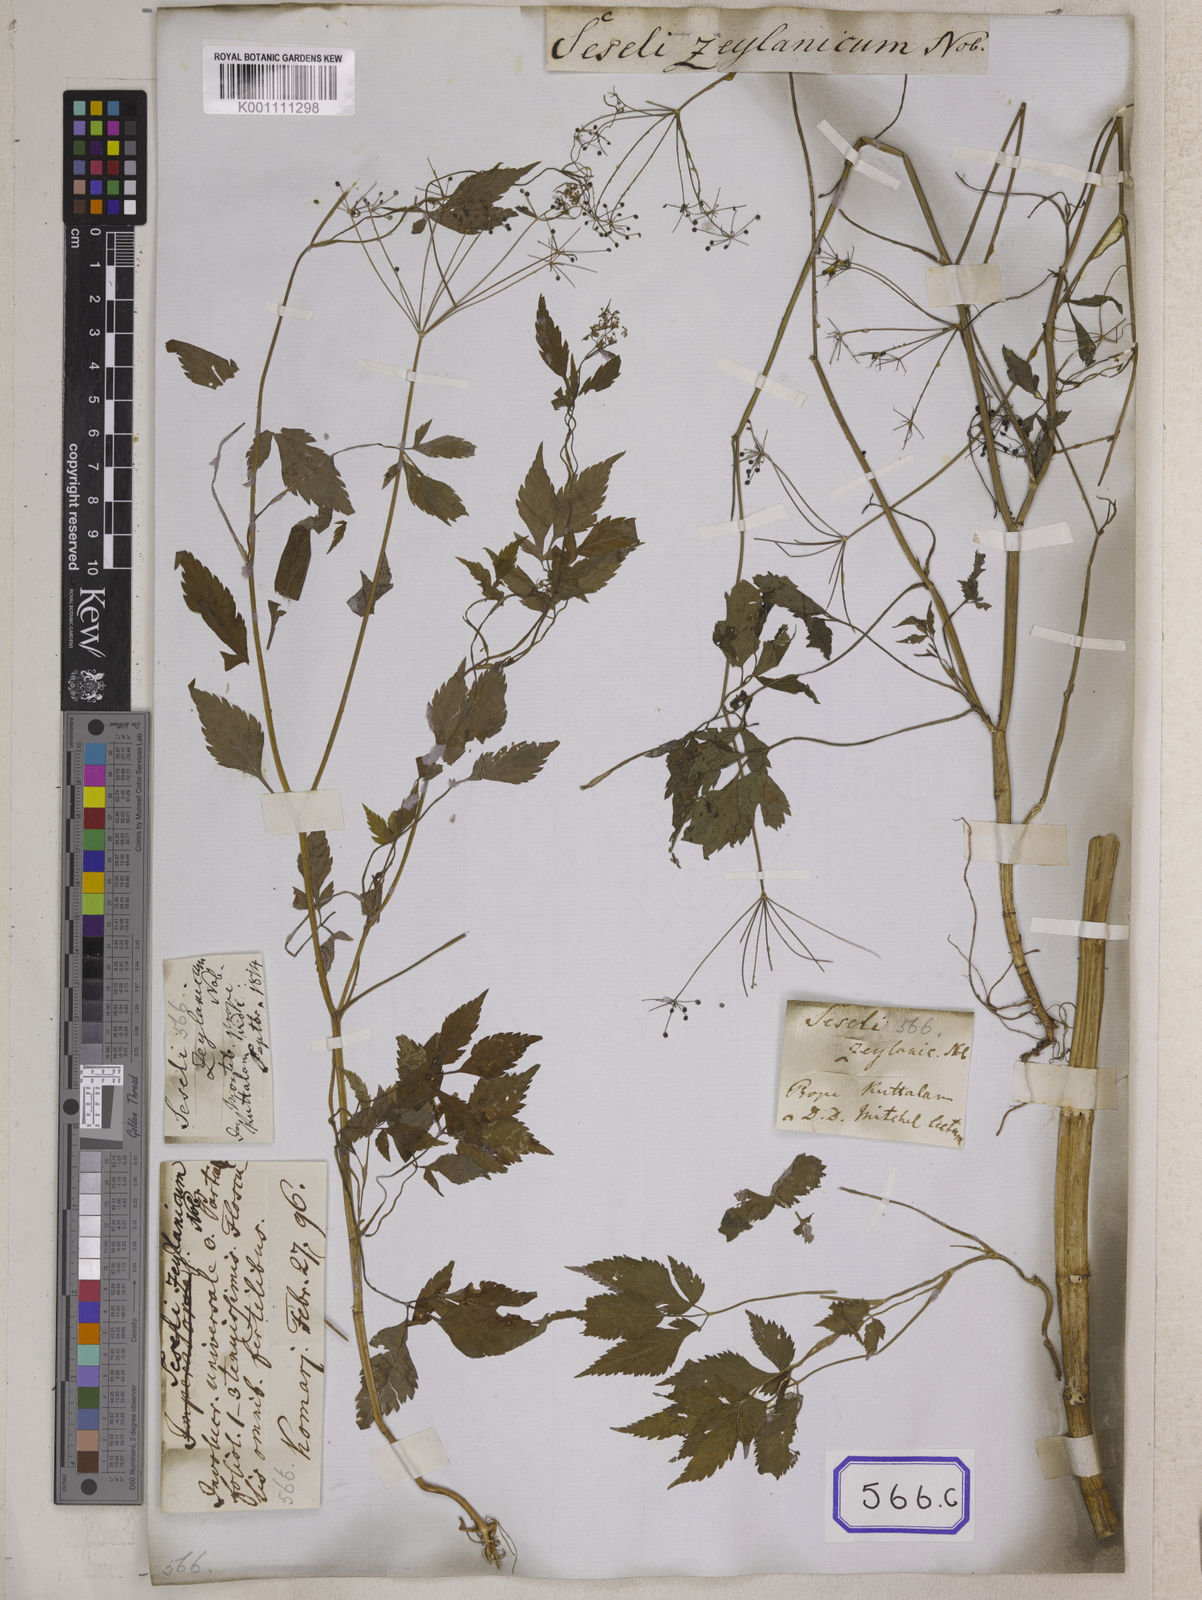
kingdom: Plantae
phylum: Tracheophyta
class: Magnoliopsida
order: Apiales
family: Apiaceae
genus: Pimpinella
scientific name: Pimpinella
